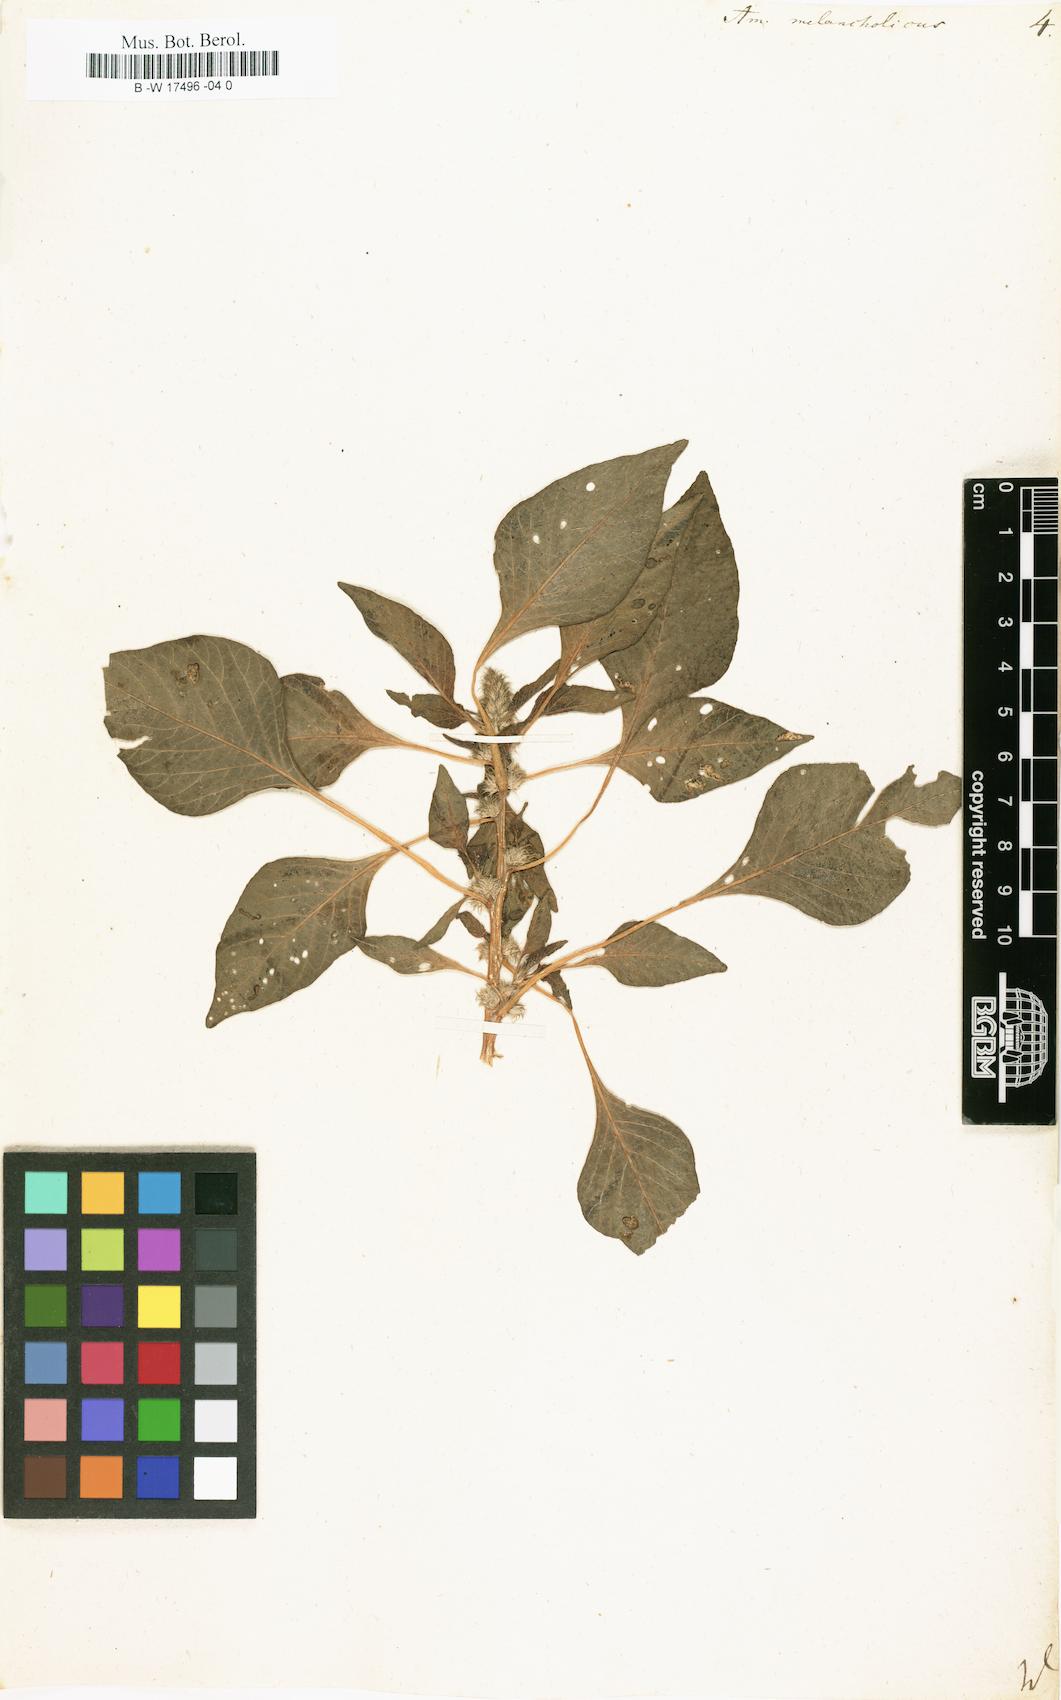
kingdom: Plantae
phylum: Tracheophyta
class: Magnoliopsida
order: Caryophyllales
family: Amaranthaceae
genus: Amaranthus
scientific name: Amaranthus tricolor
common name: Joseph's-coat
